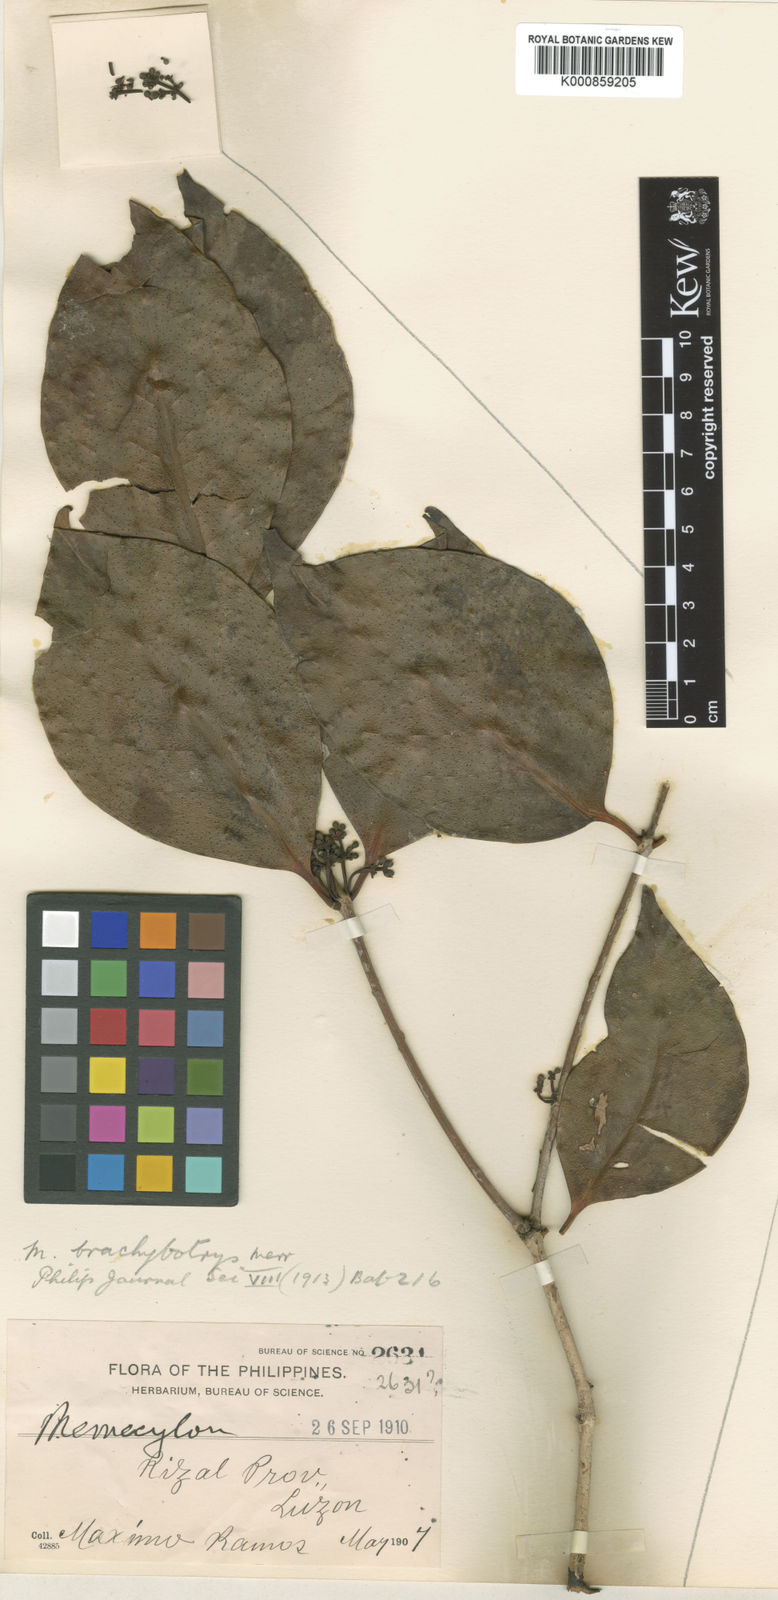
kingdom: Plantae
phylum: Tracheophyta
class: Magnoliopsida
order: Myrtales
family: Melastomataceae
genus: Memecylon
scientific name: Memecylon brachybotrys
